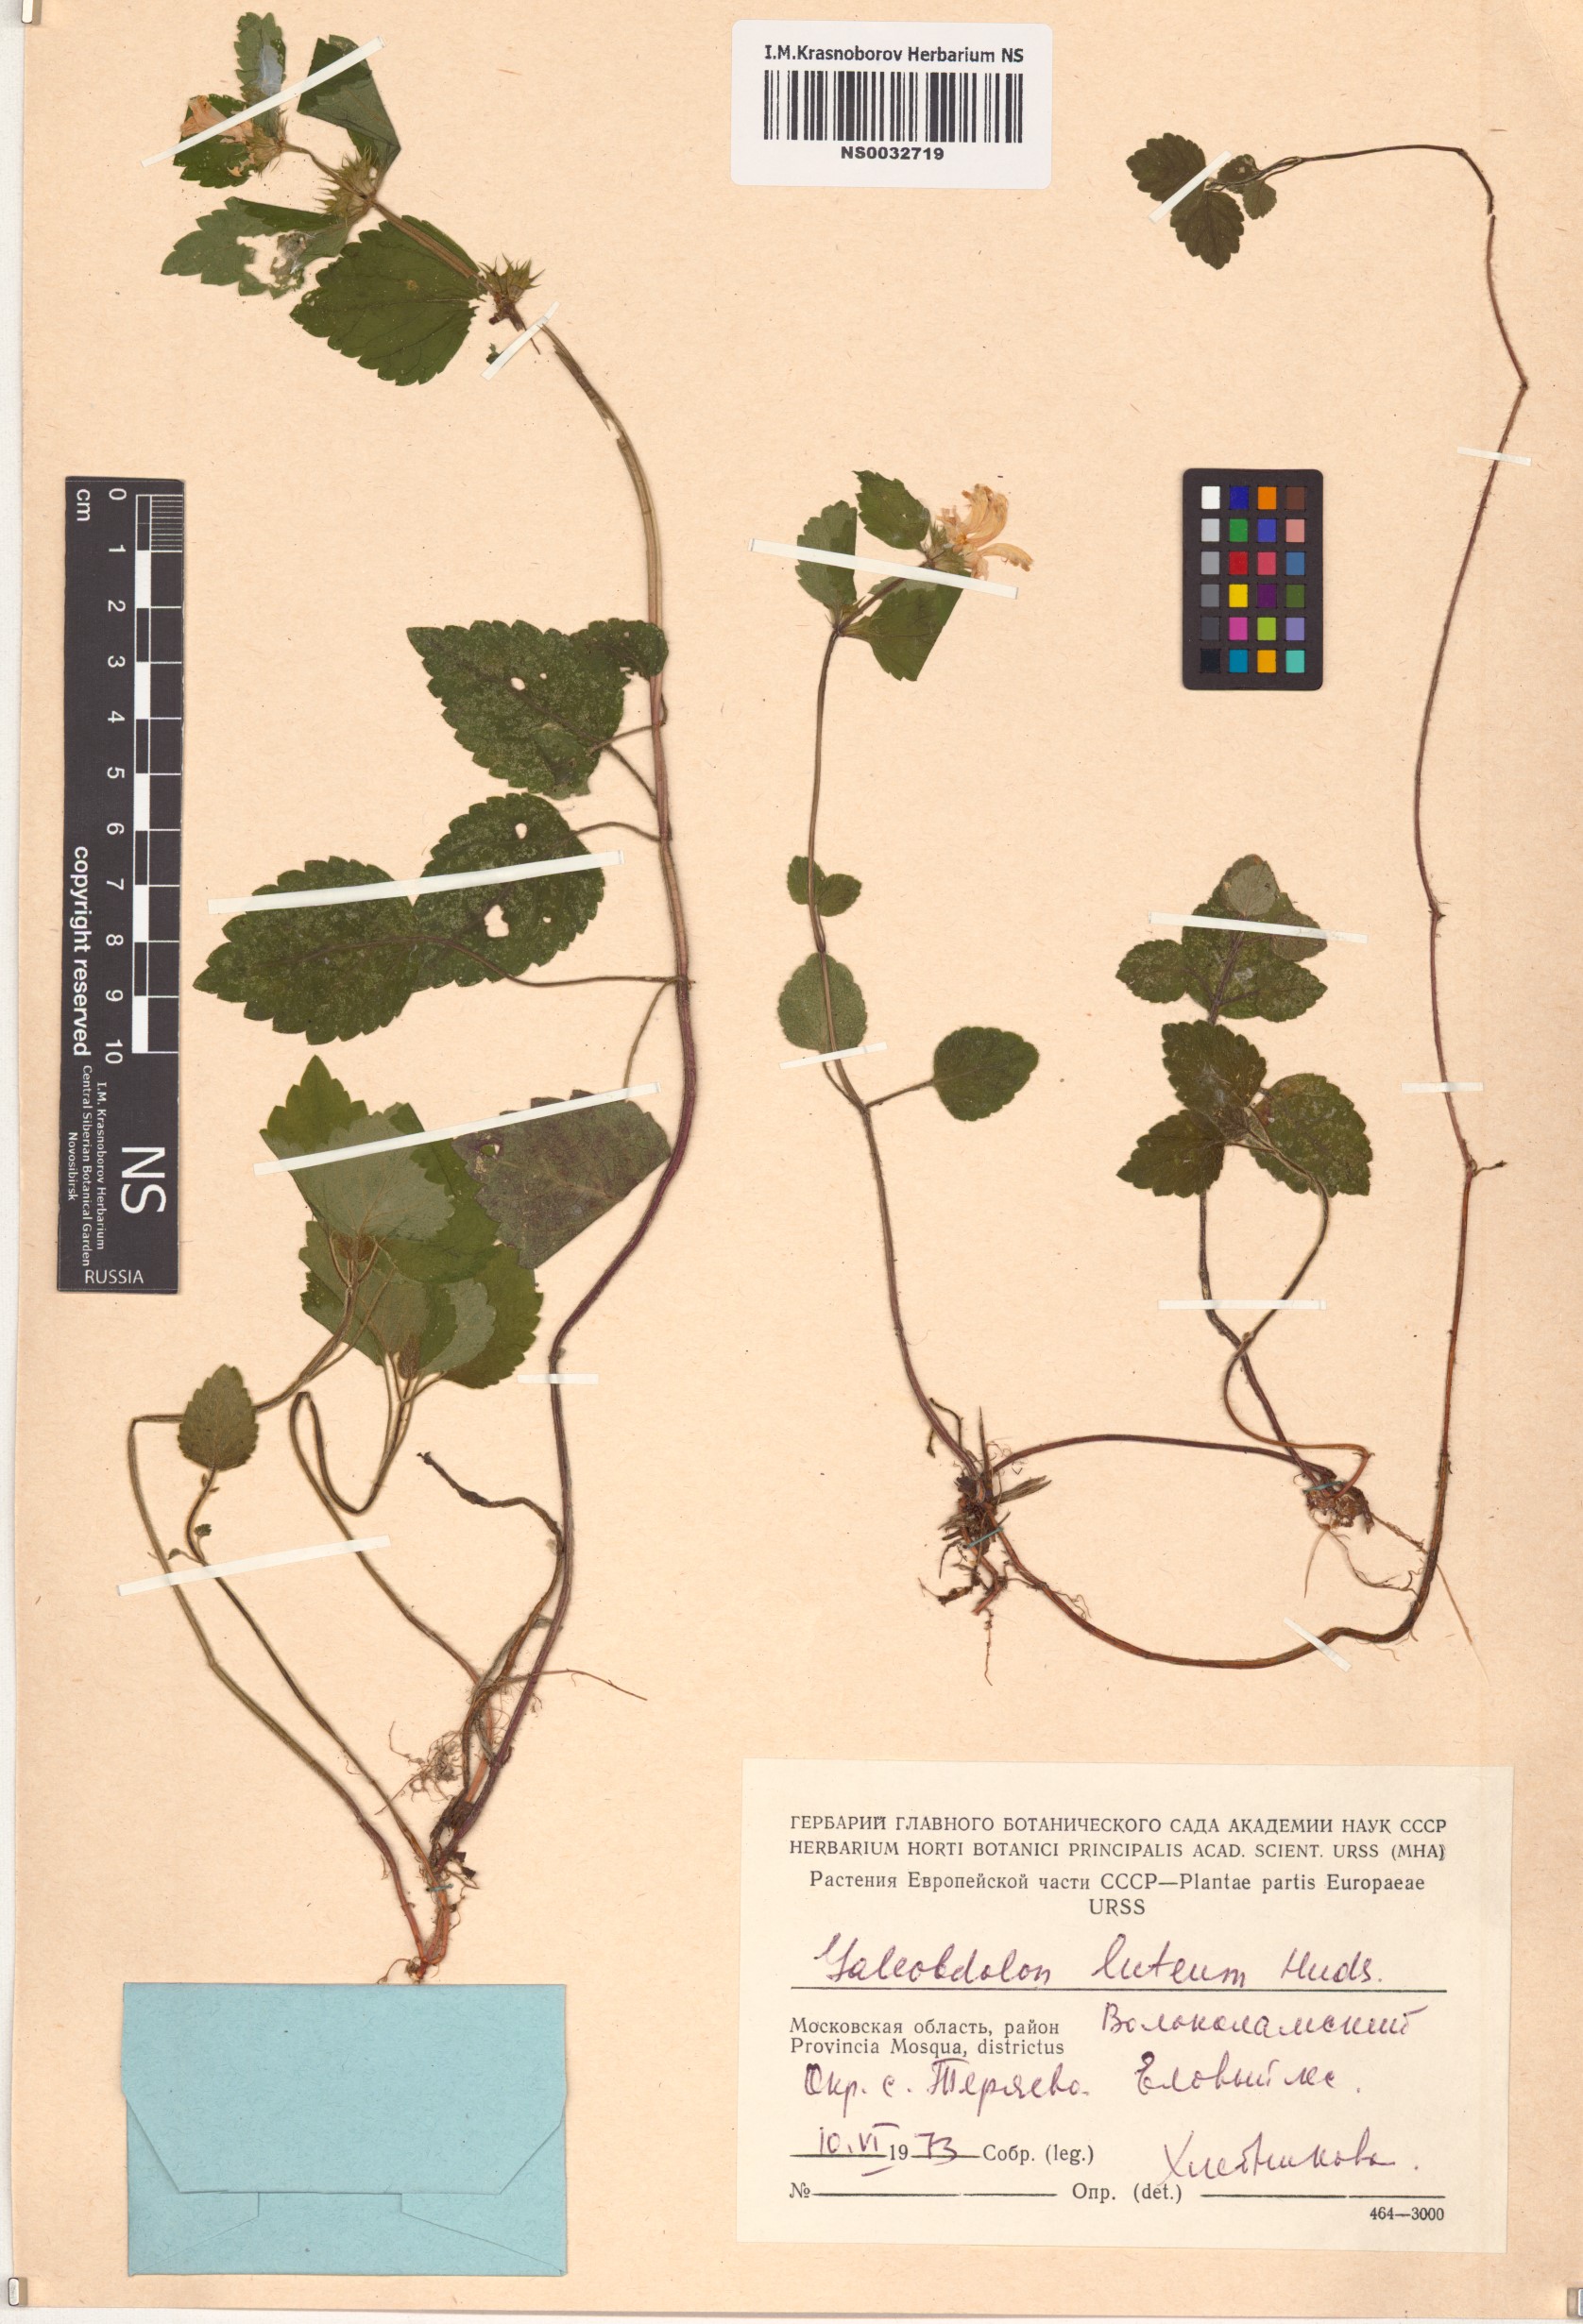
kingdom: Plantae
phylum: Tracheophyta
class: Magnoliopsida
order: Lamiales
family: Lamiaceae
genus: Lamium
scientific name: Lamium galeobdolon
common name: Yellow archangel
